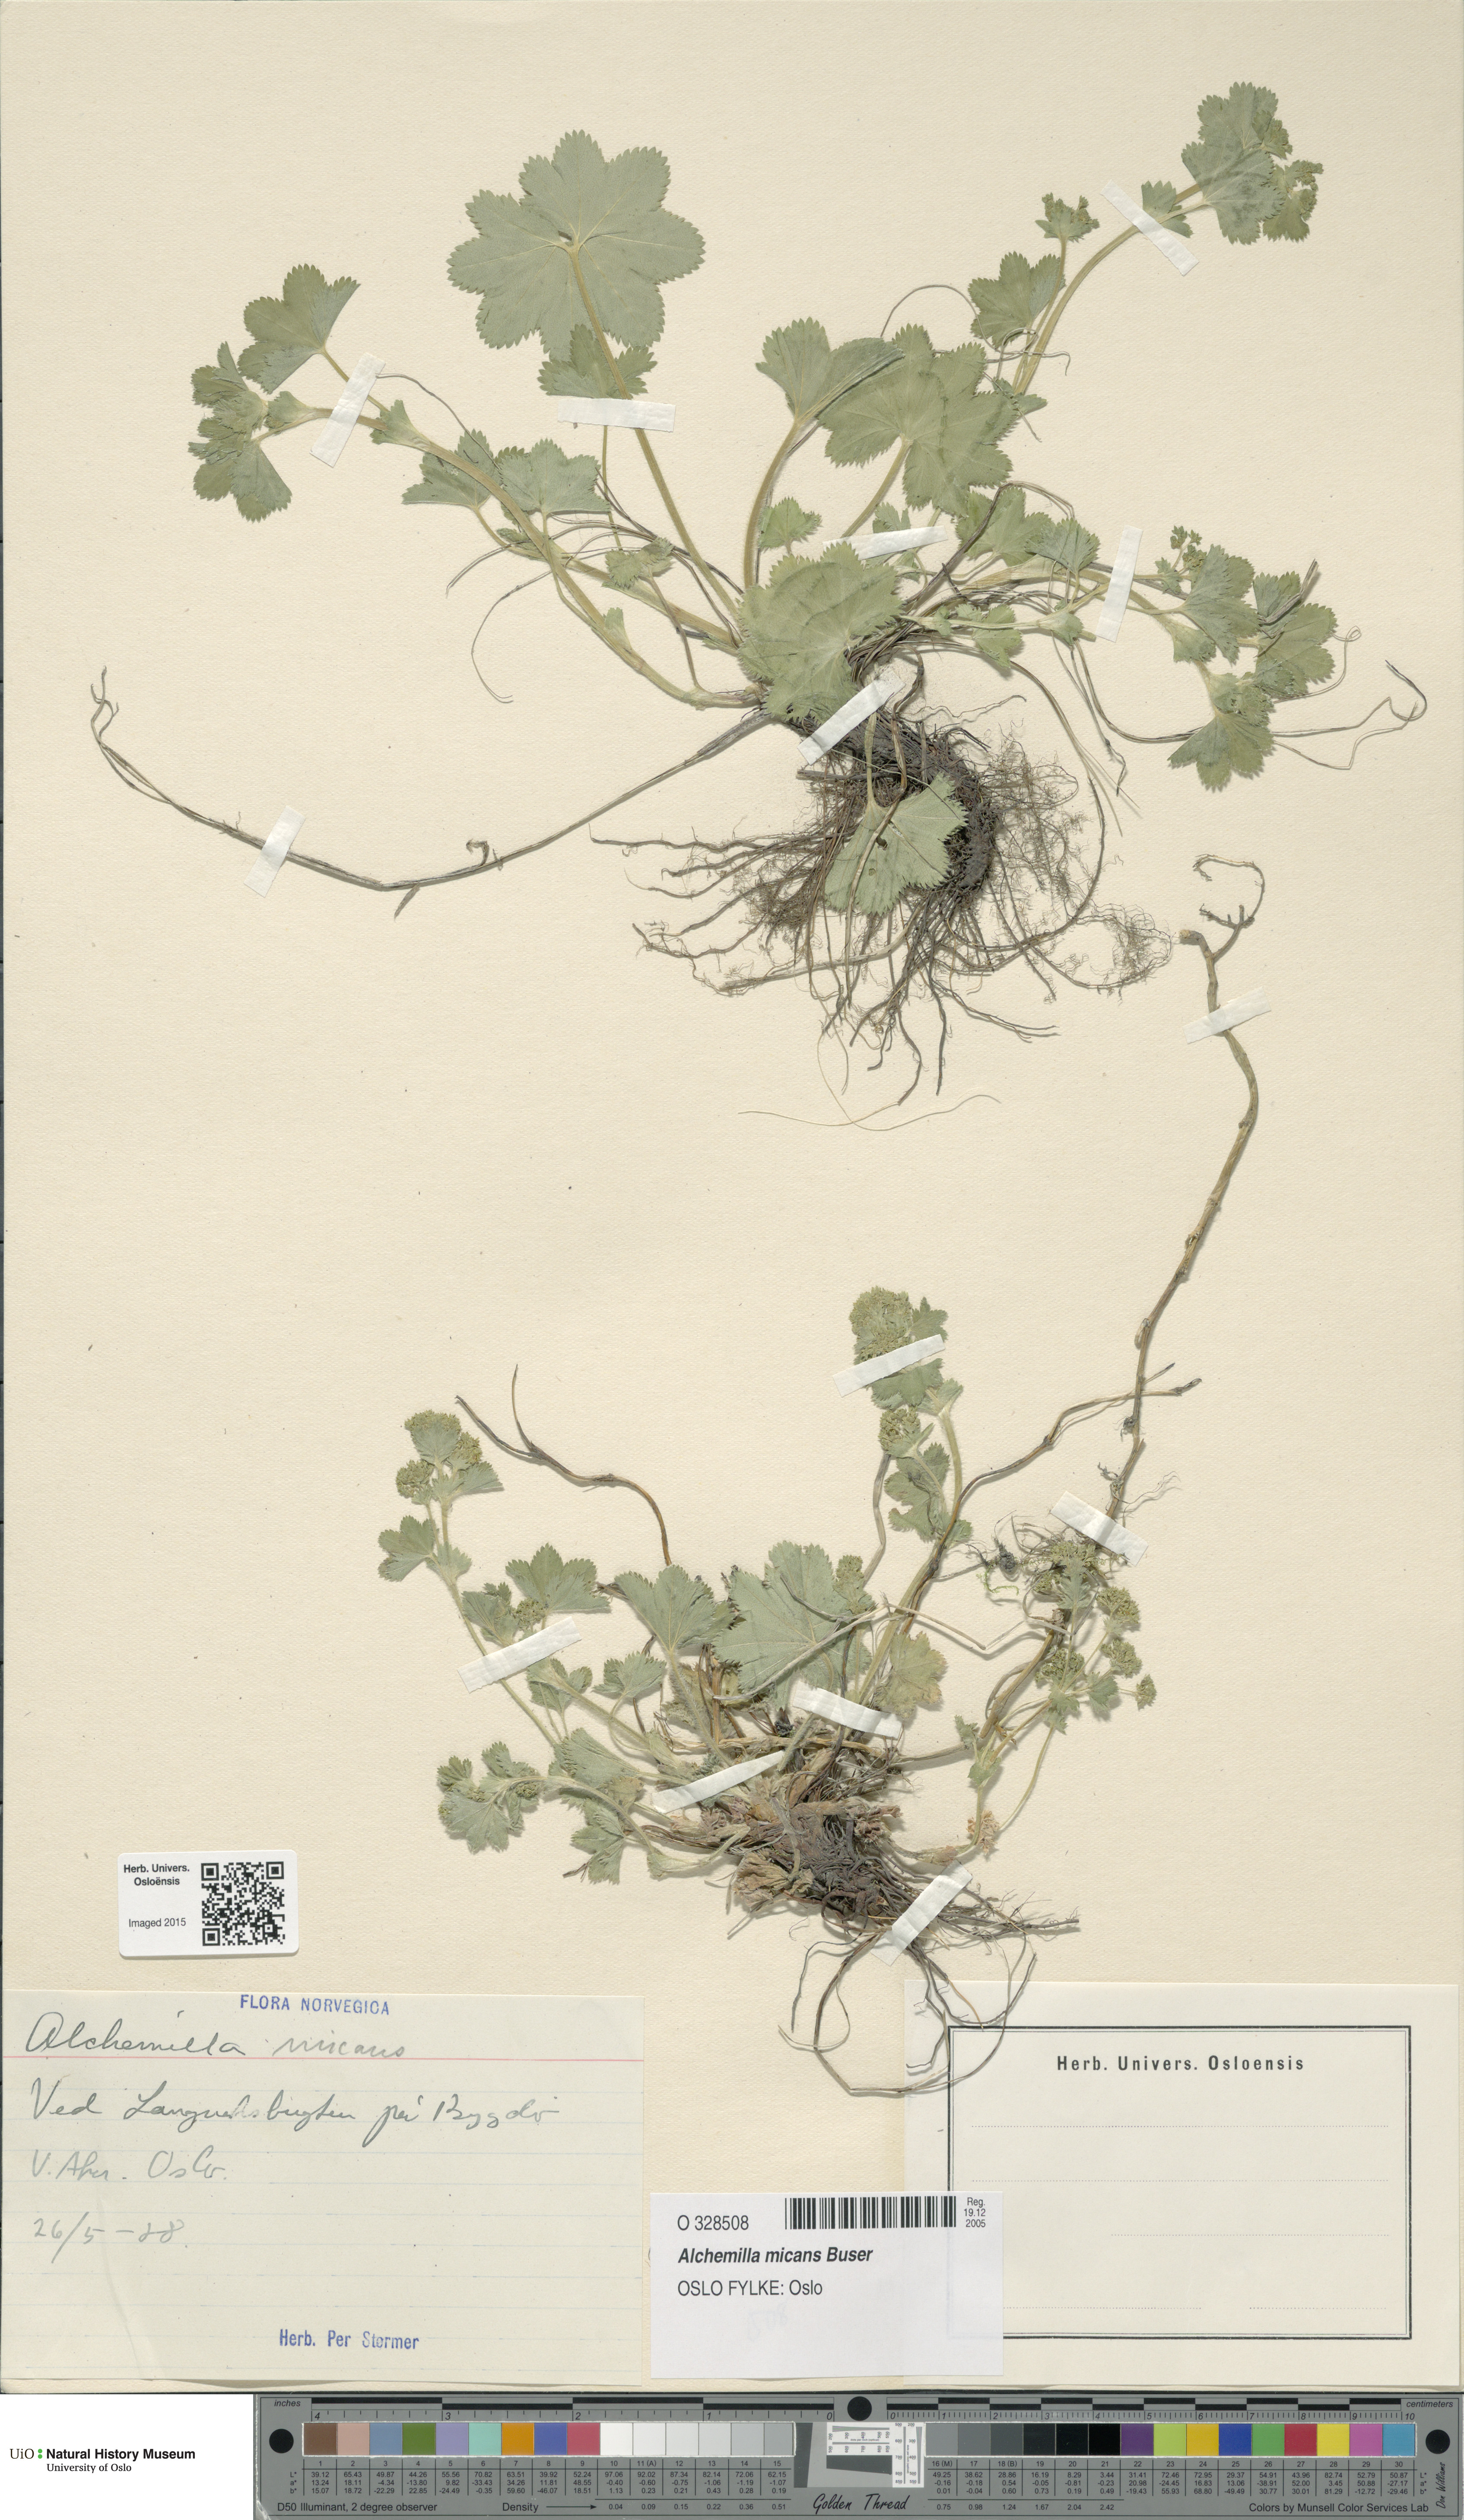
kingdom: Plantae
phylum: Tracheophyta
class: Magnoliopsida
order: Rosales
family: Rosaceae
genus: Alchemilla
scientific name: Alchemilla micans
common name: Gleaming lady's mantle
